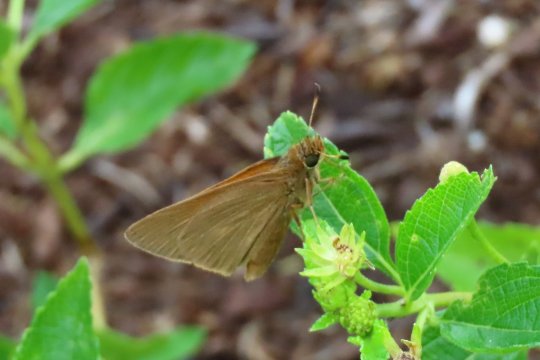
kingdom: Animalia
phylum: Arthropoda
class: Insecta
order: Lepidoptera
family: Hesperiidae
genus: Euphyes
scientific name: Euphyes pilatka
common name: Palatka Skipper
